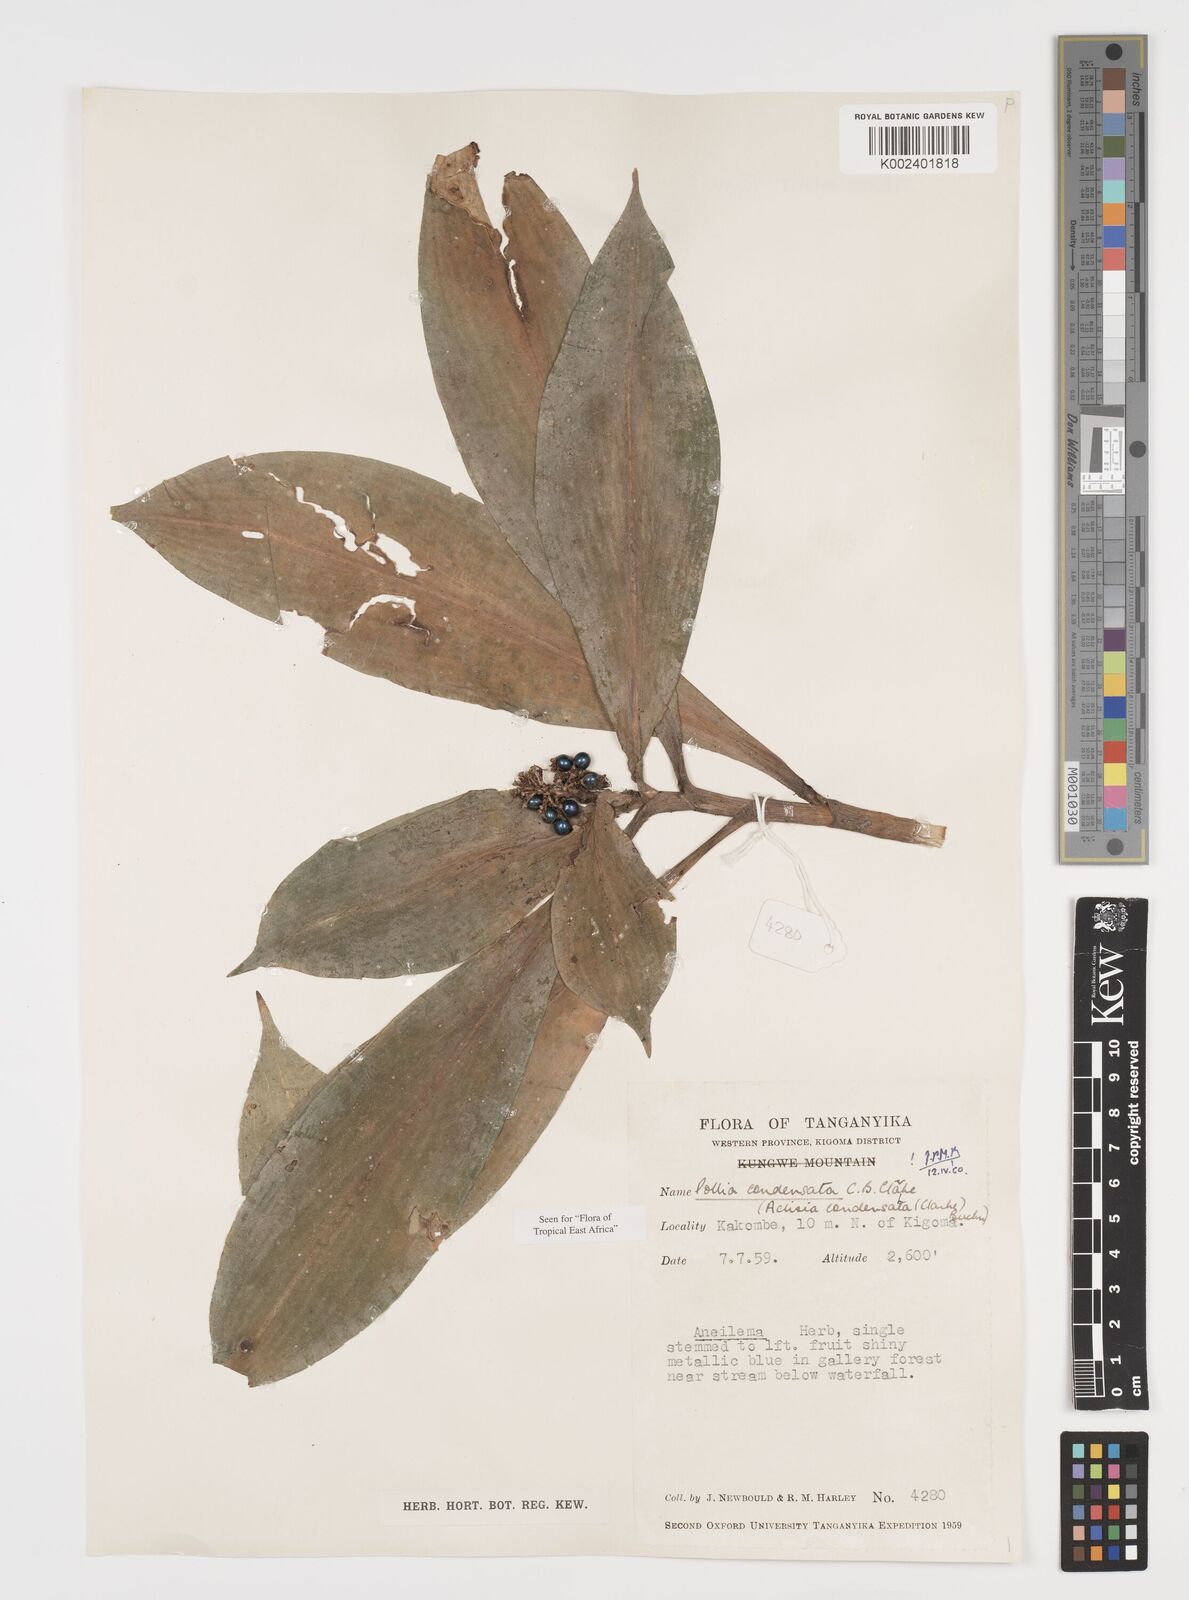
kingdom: Plantae
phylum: Tracheophyta
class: Liliopsida
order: Commelinales
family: Commelinaceae
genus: Pollia
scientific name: Pollia condensata
